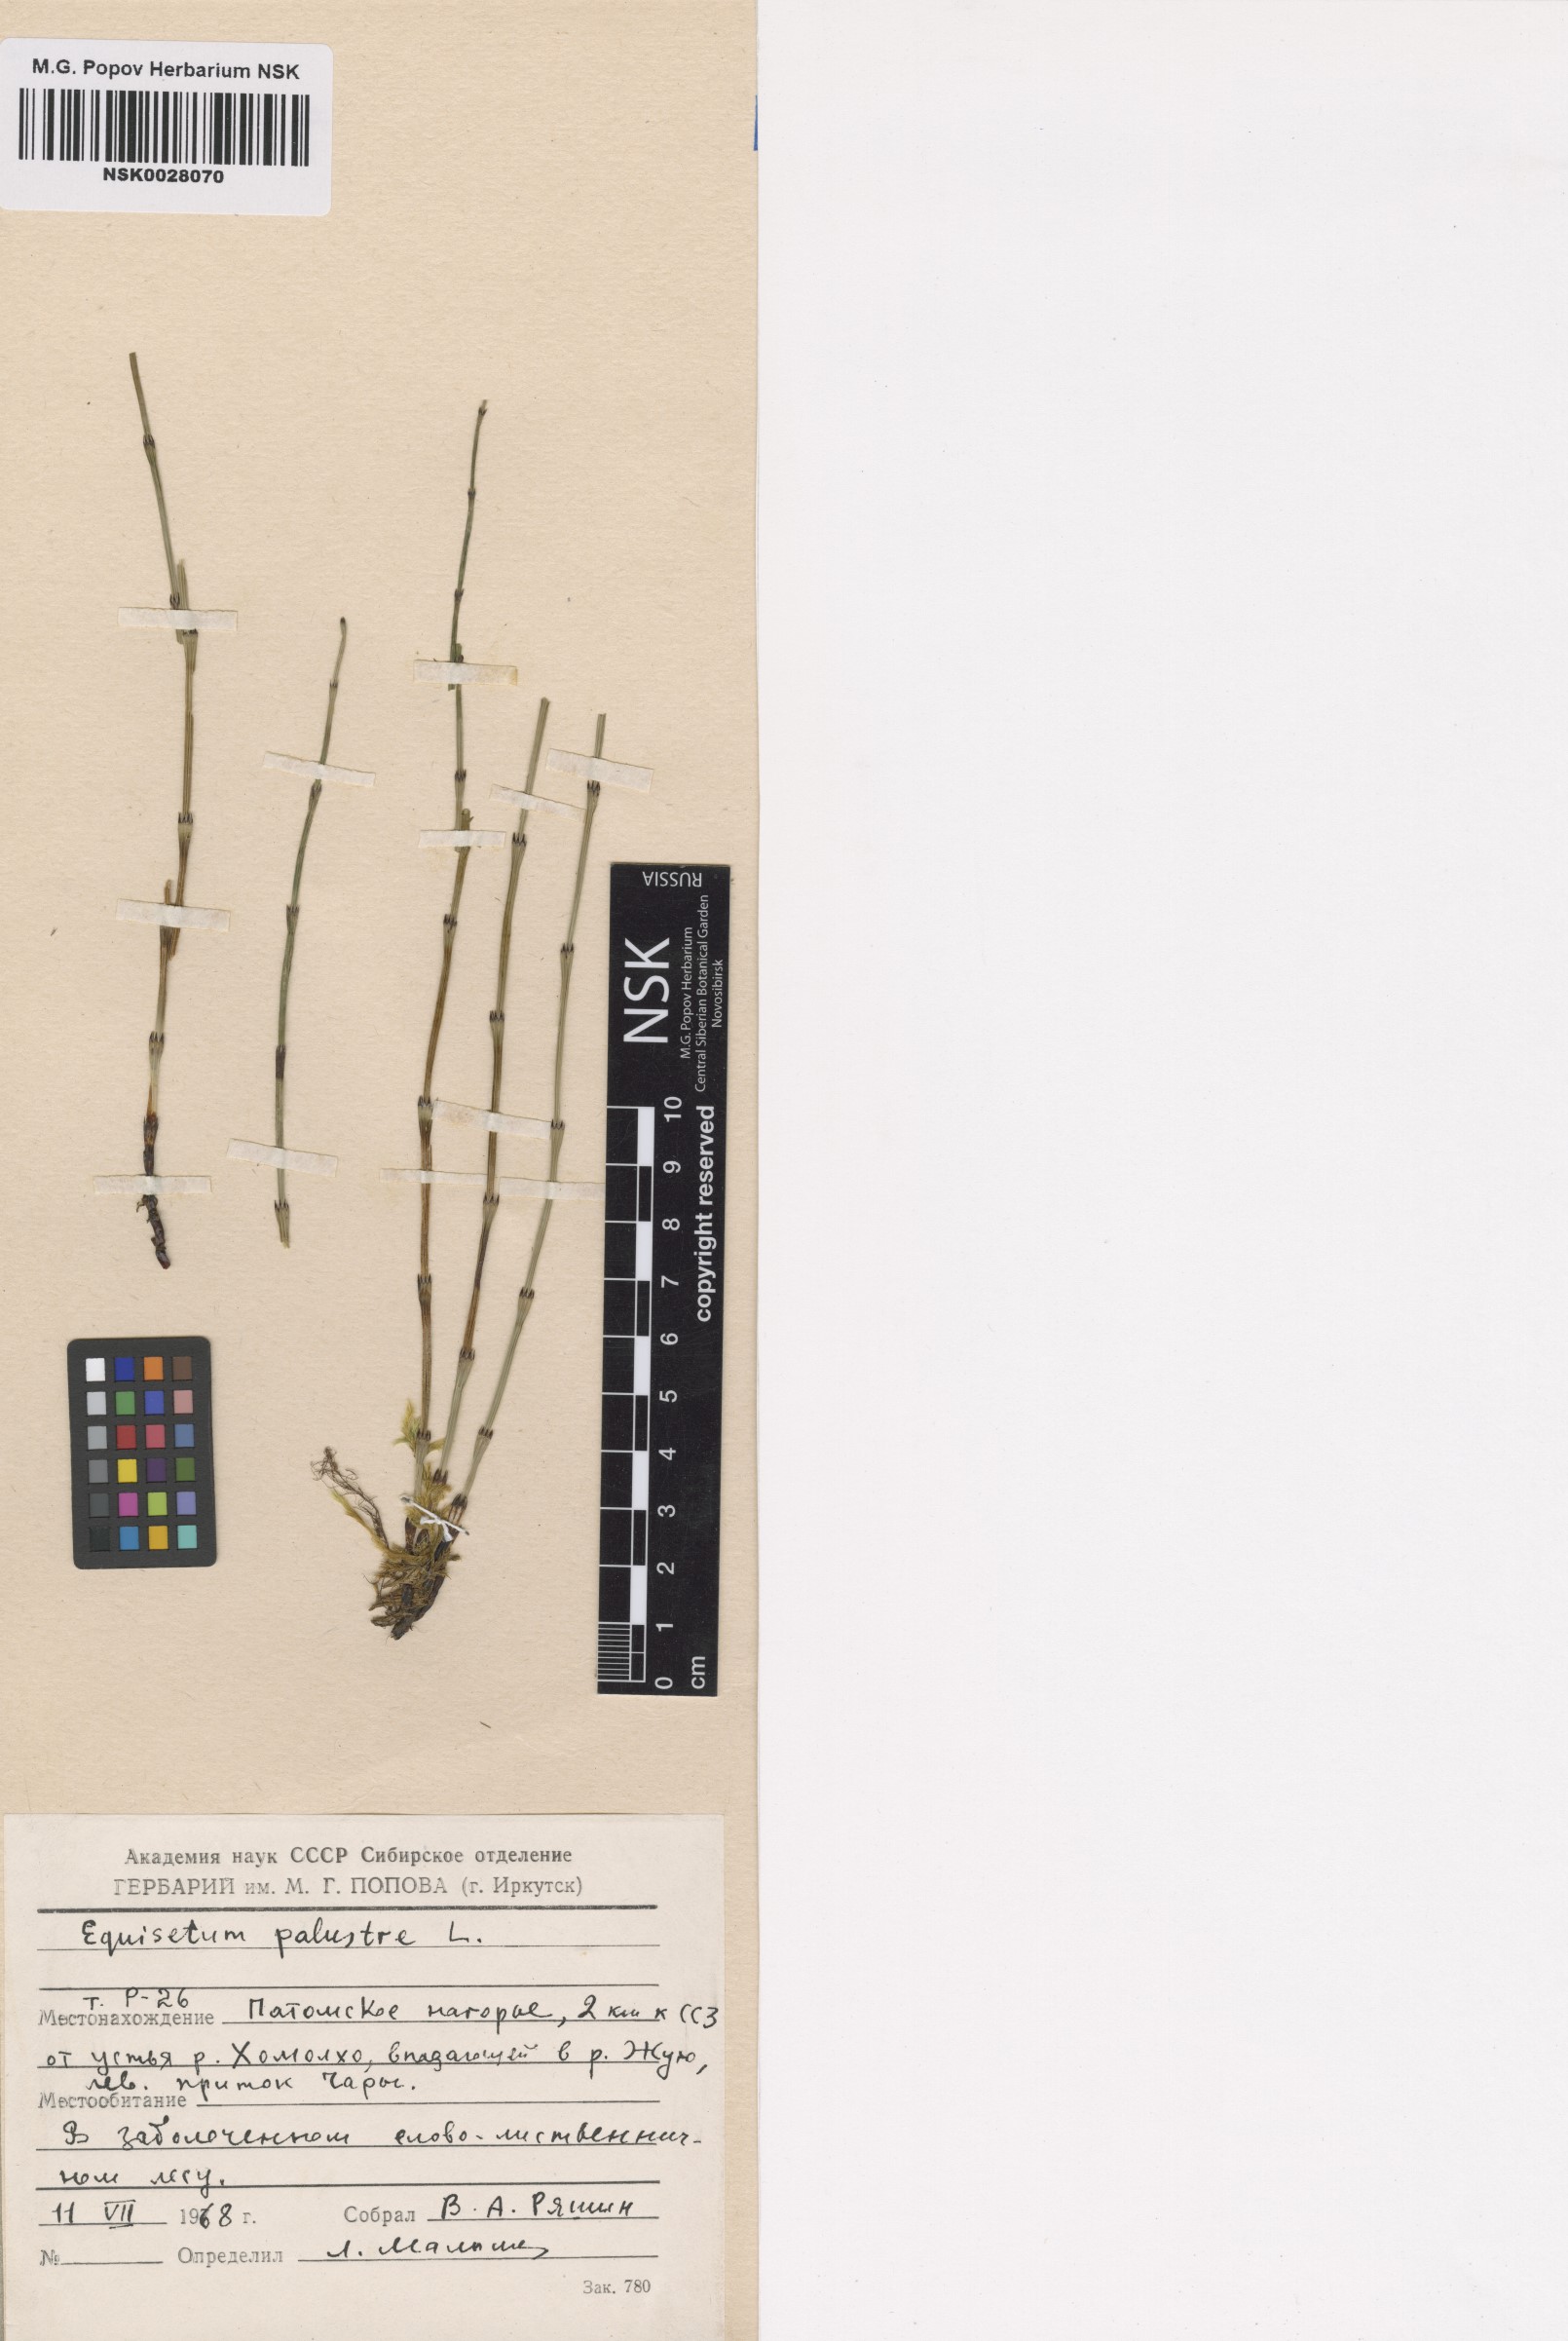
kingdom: Plantae
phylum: Tracheophyta
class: Polypodiopsida
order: Equisetales
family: Equisetaceae
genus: Equisetum
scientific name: Equisetum palustre
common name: Marsh horsetail
